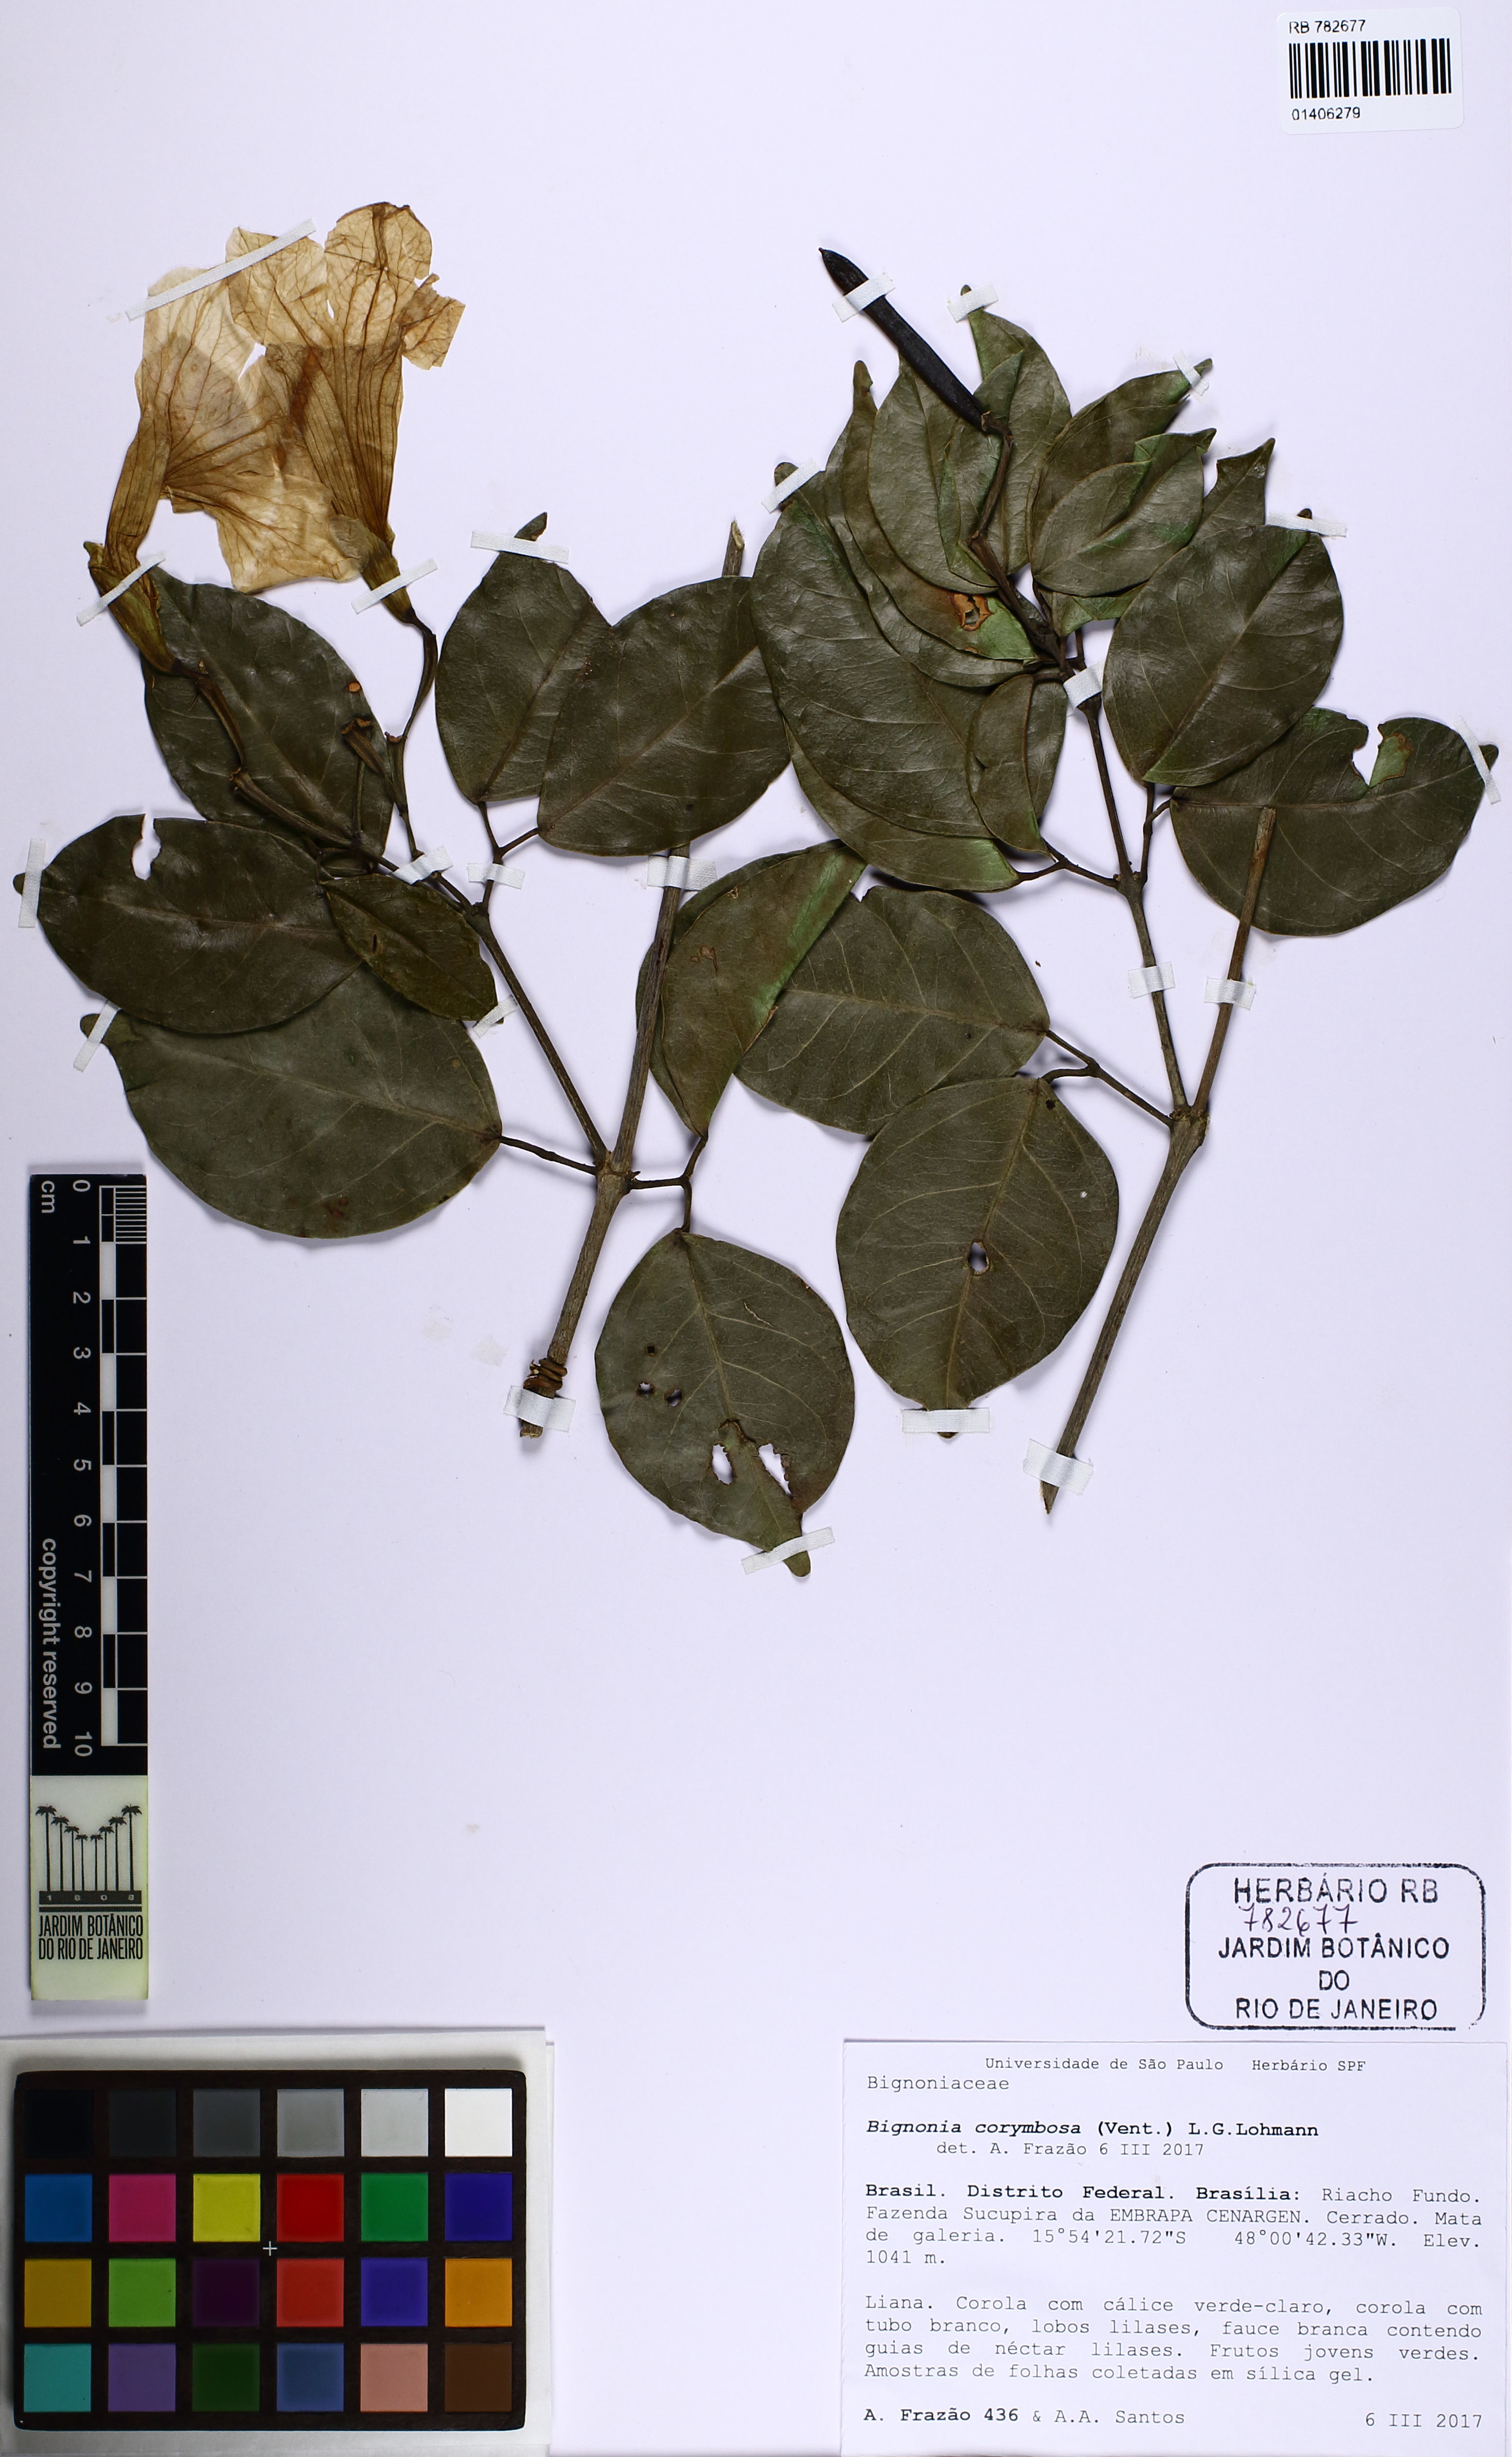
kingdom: Plantae
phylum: Tracheophyta
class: Magnoliopsida
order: Lamiales
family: Bignoniaceae
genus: Bignonia
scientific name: Bignonia corymbosa
